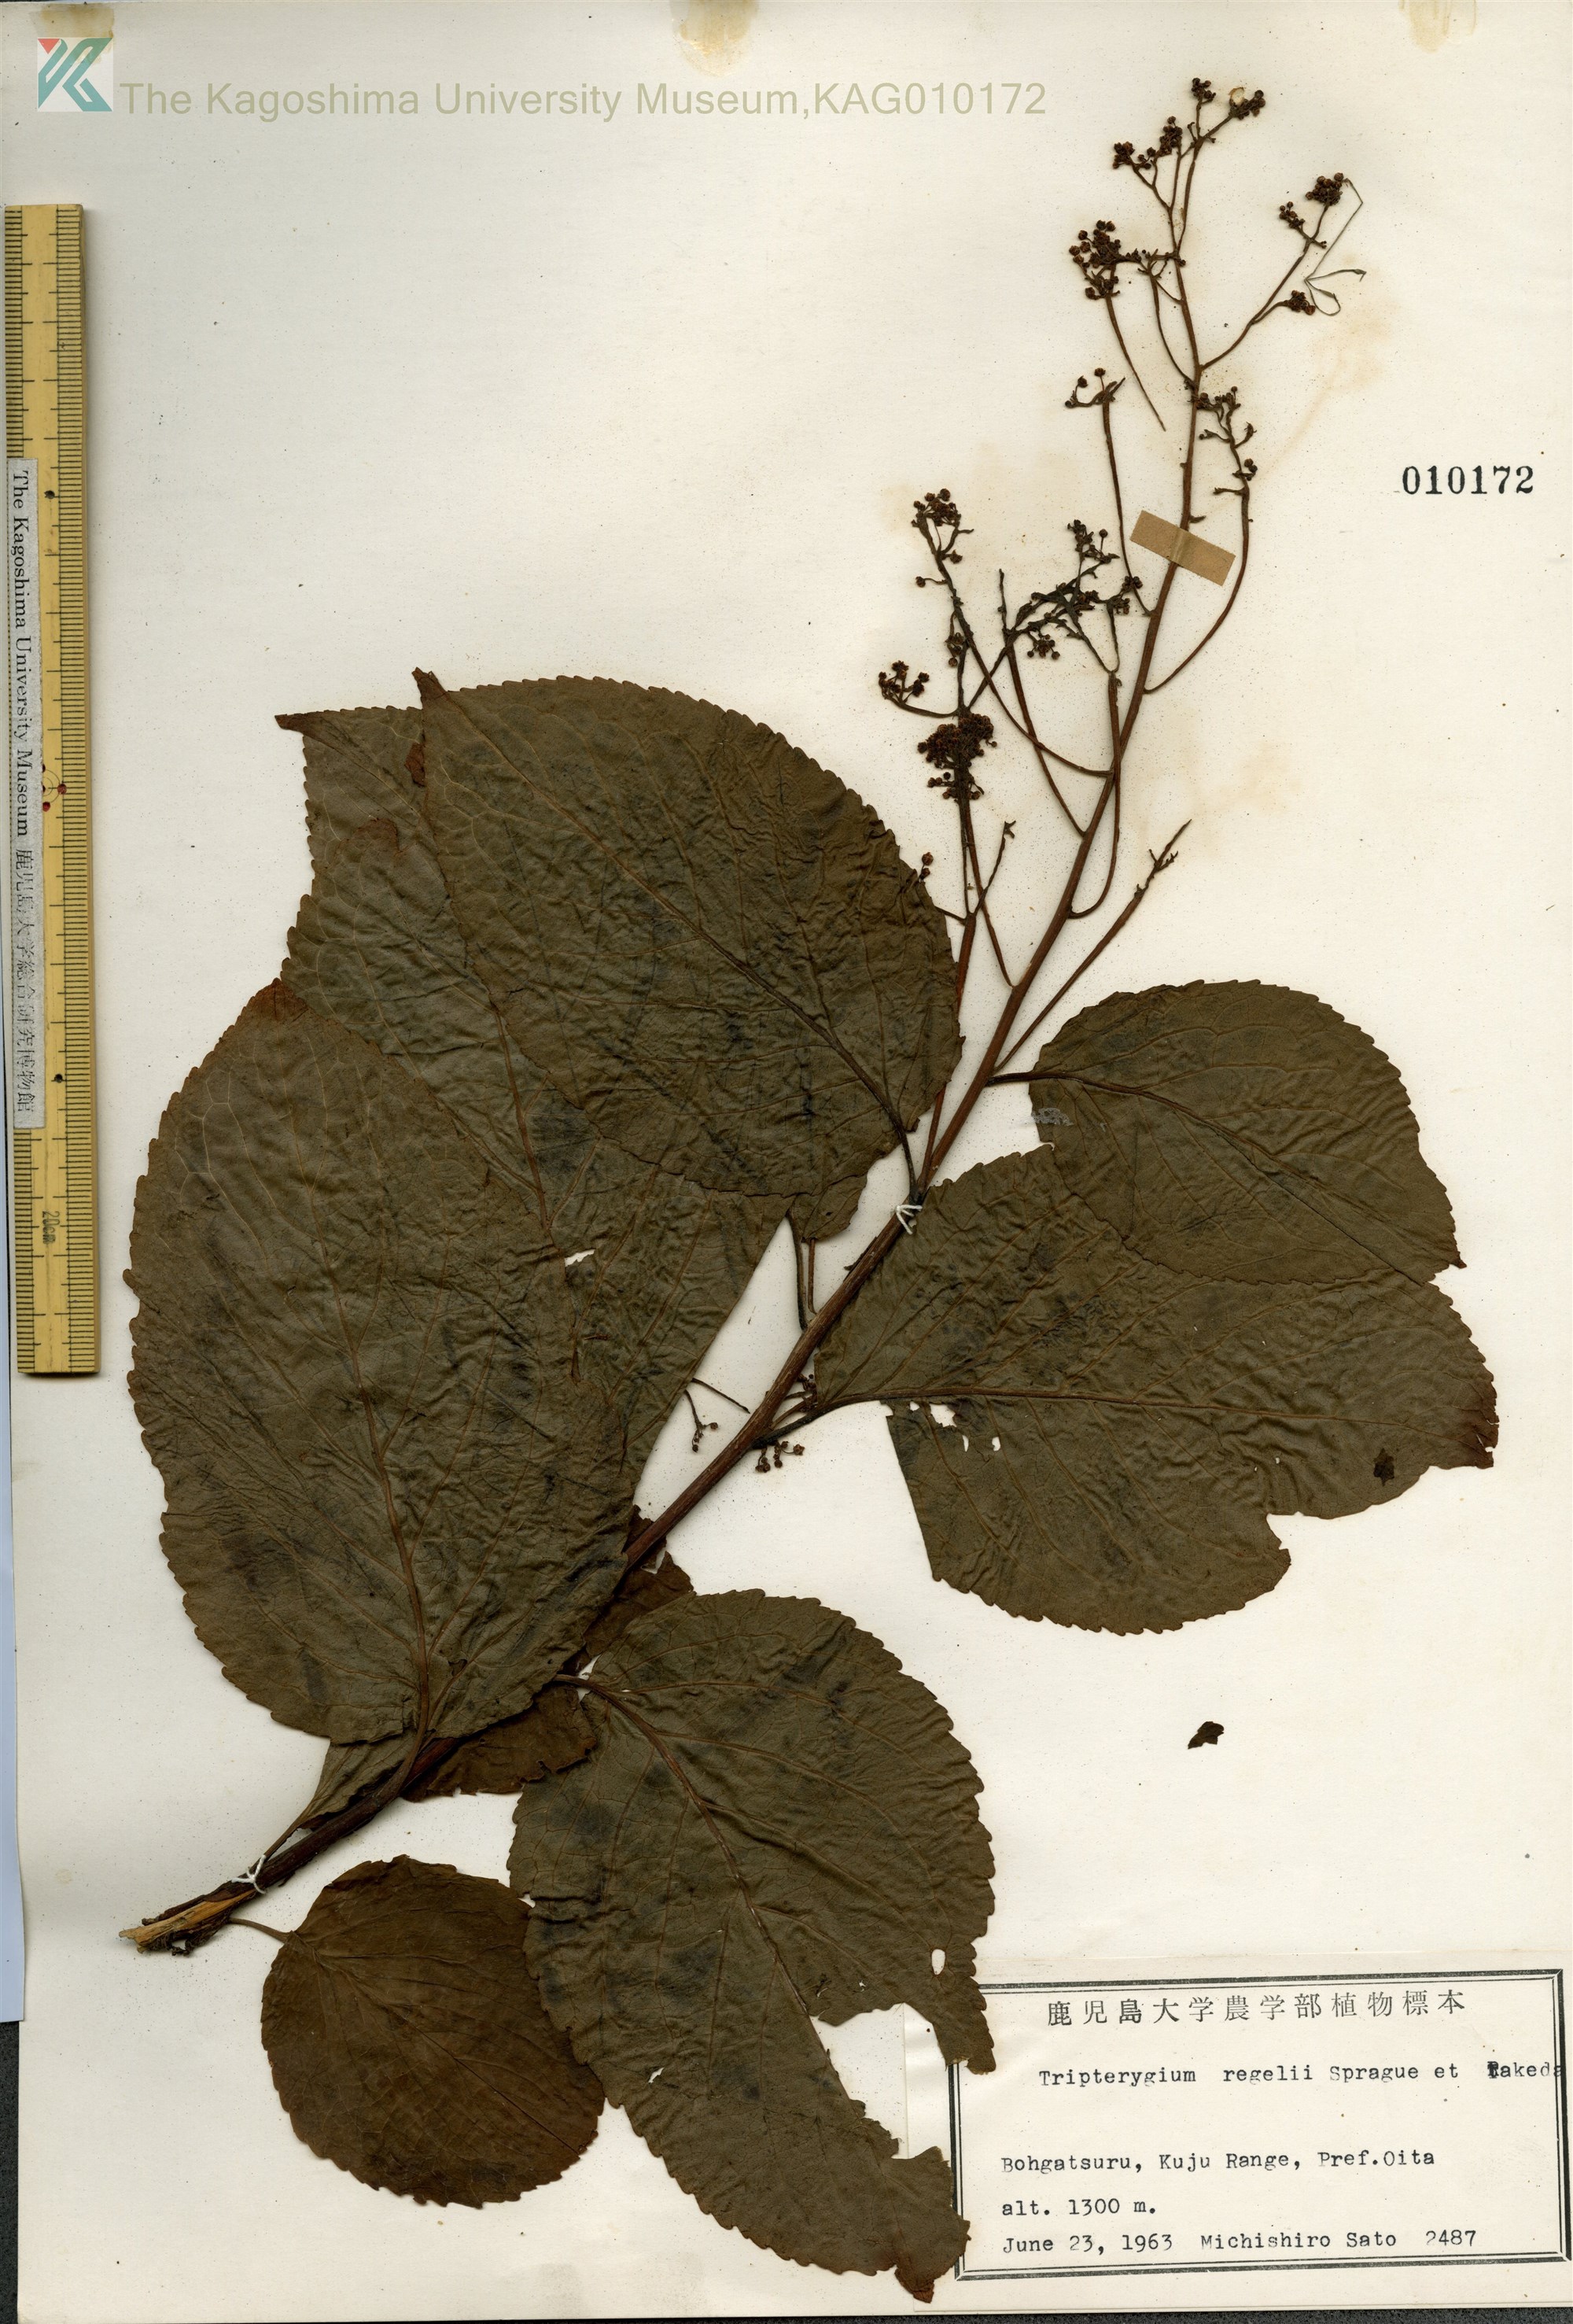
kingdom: Plantae
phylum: Tracheophyta
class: Magnoliopsida
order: Celastrales
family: Celastraceae
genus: Tripterygium
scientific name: Tripterygium wilfordii
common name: クロヅル
